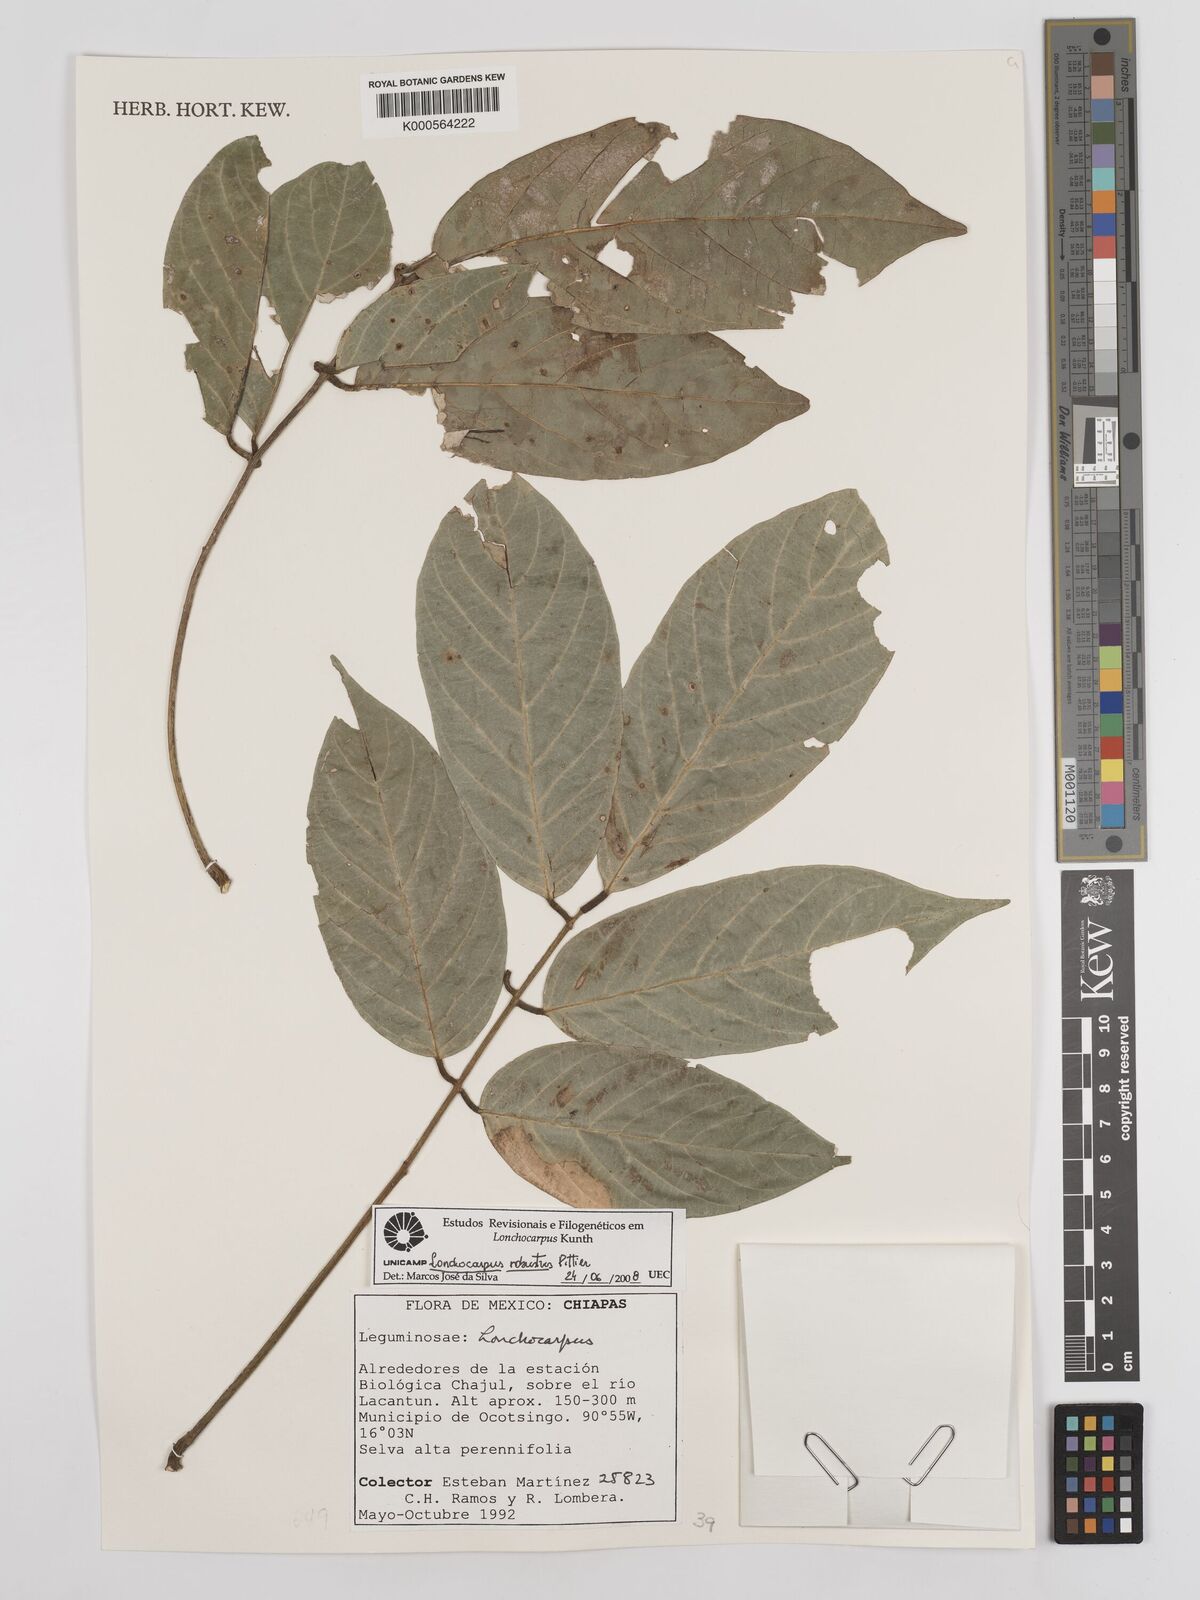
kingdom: Plantae
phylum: Tracheophyta
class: Magnoliopsida
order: Fabales
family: Fabaceae
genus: Lonchocarpus
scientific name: Lonchocarpus robustus
